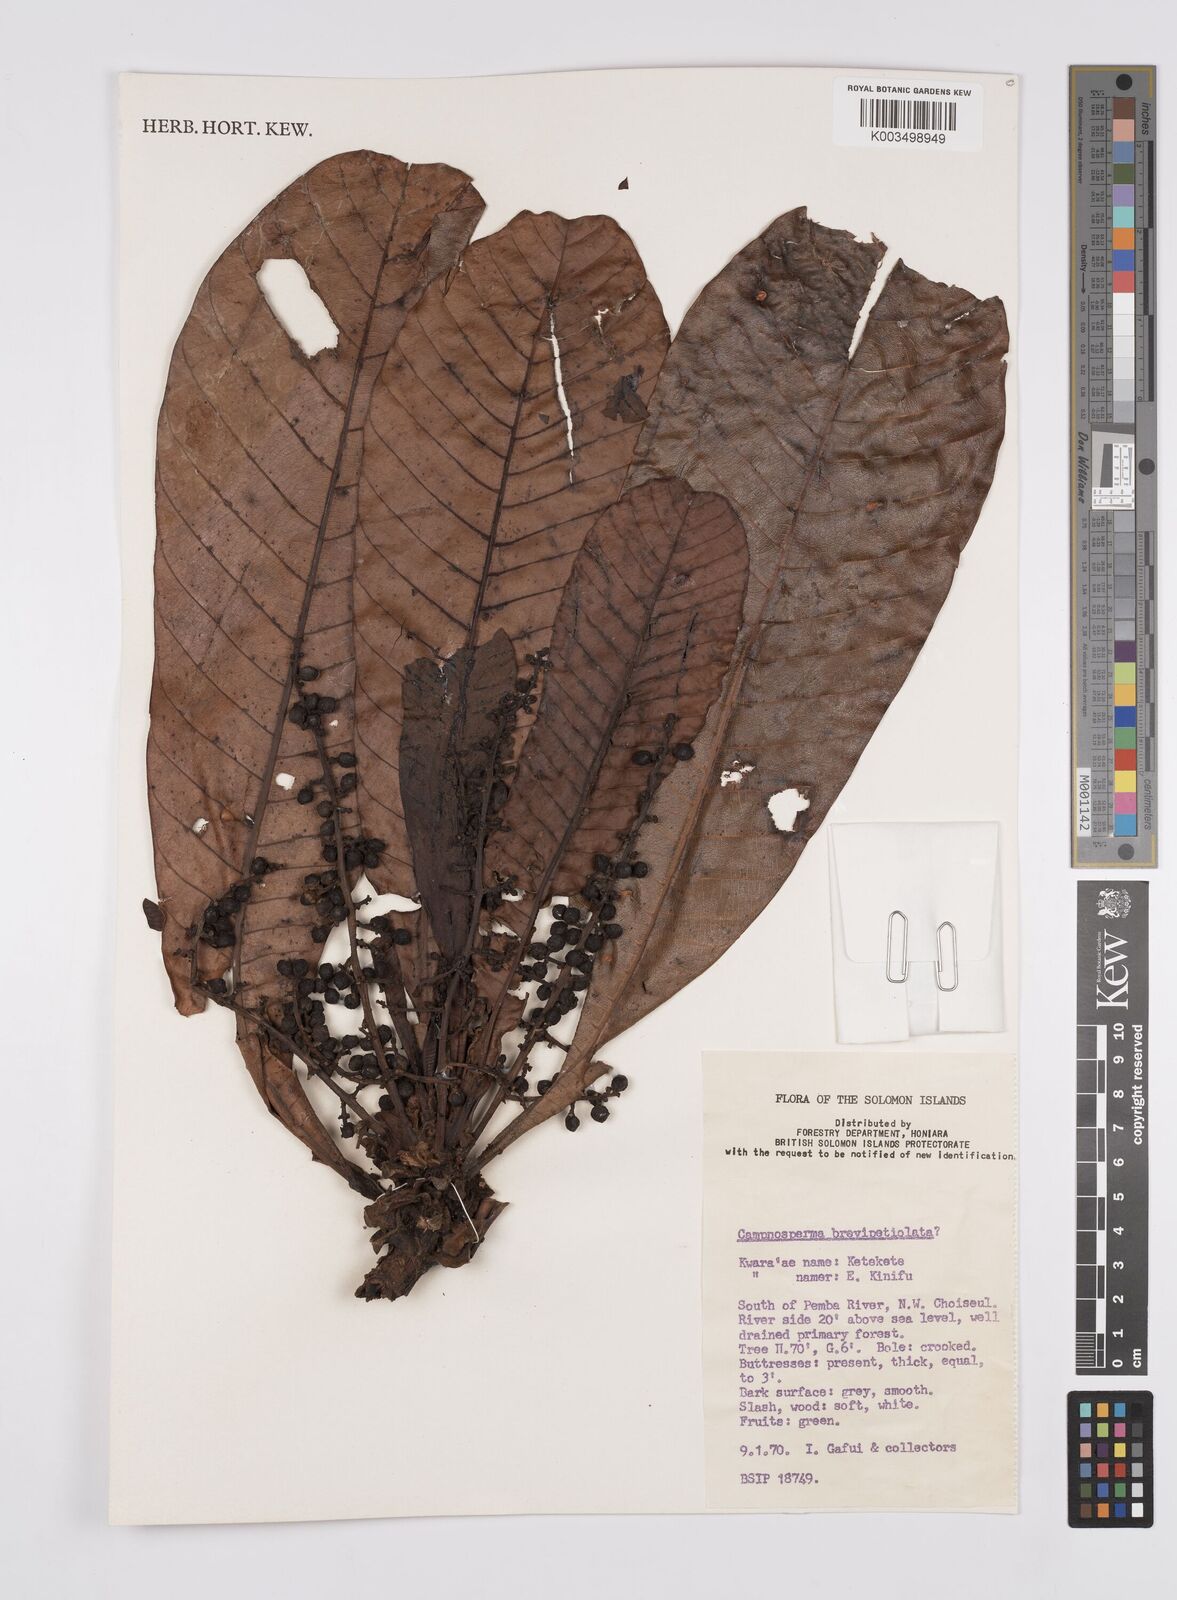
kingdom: Plantae
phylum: Tracheophyta
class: Magnoliopsida
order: Sapindales
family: Anacardiaceae
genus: Campnosperma
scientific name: Campnosperma brevipetiolatum
